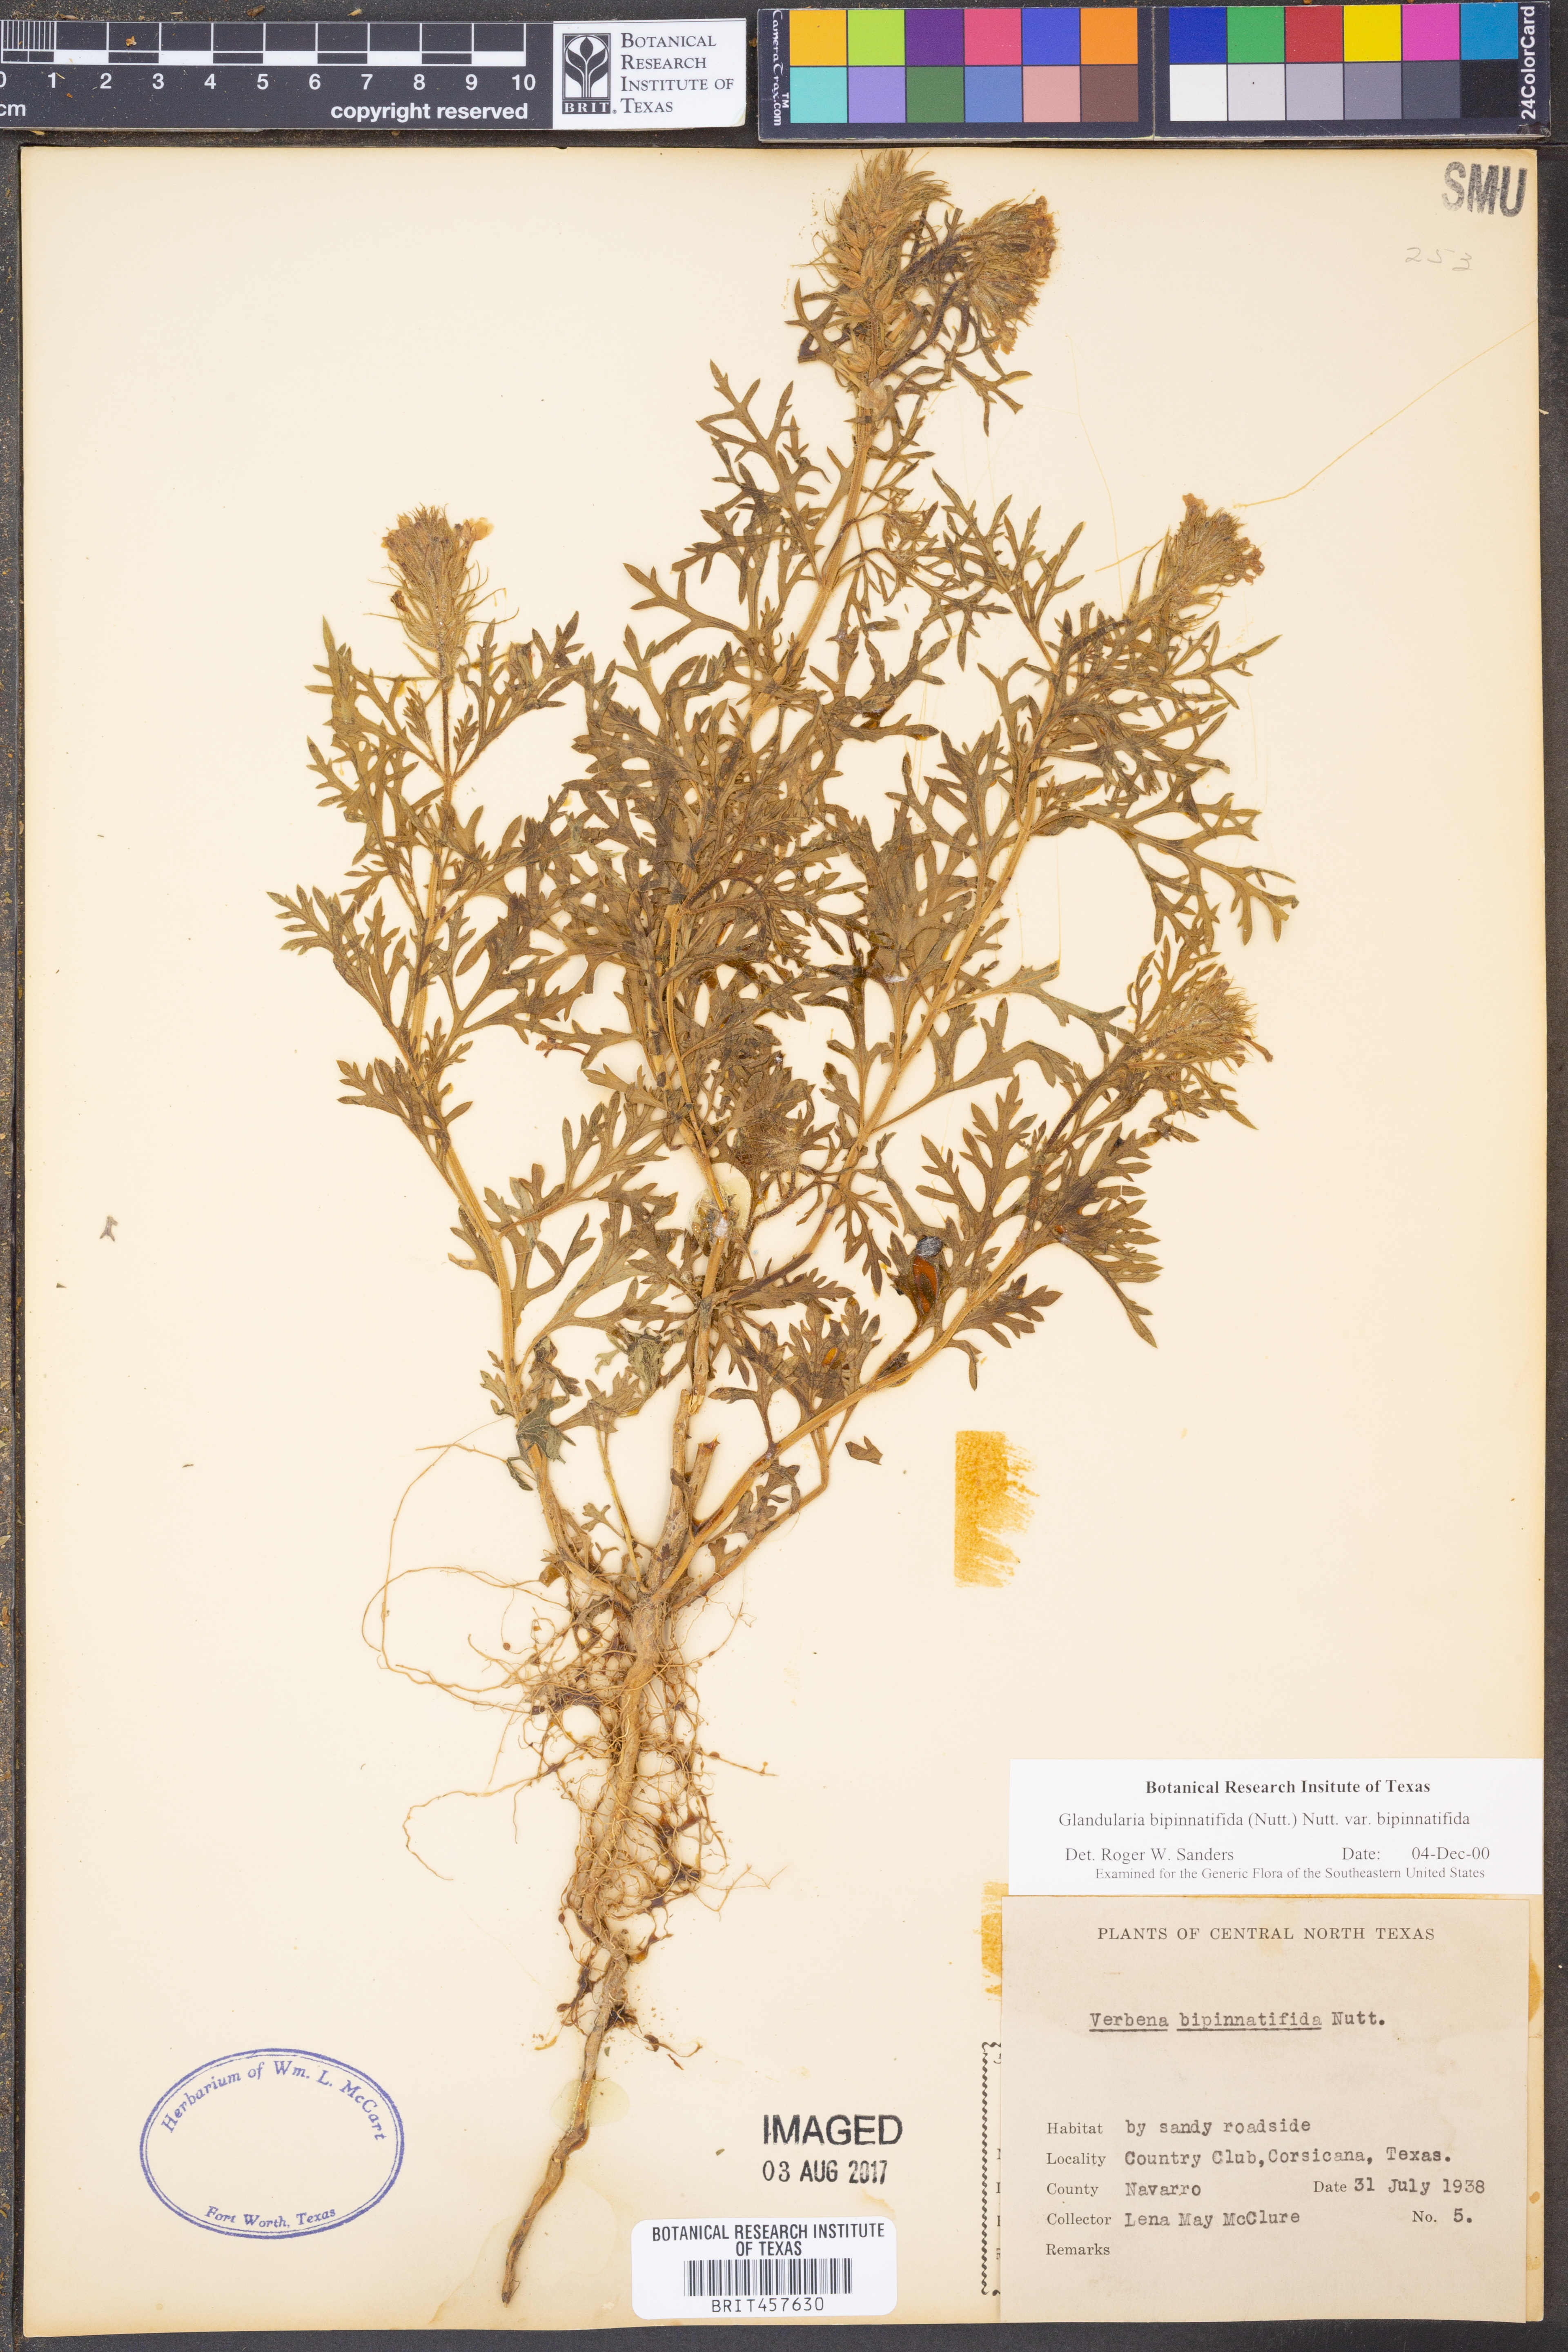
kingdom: Plantae
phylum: Tracheophyta
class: Magnoliopsida
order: Lamiales
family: Verbenaceae
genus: Verbena
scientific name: Verbena bipinnatifida
